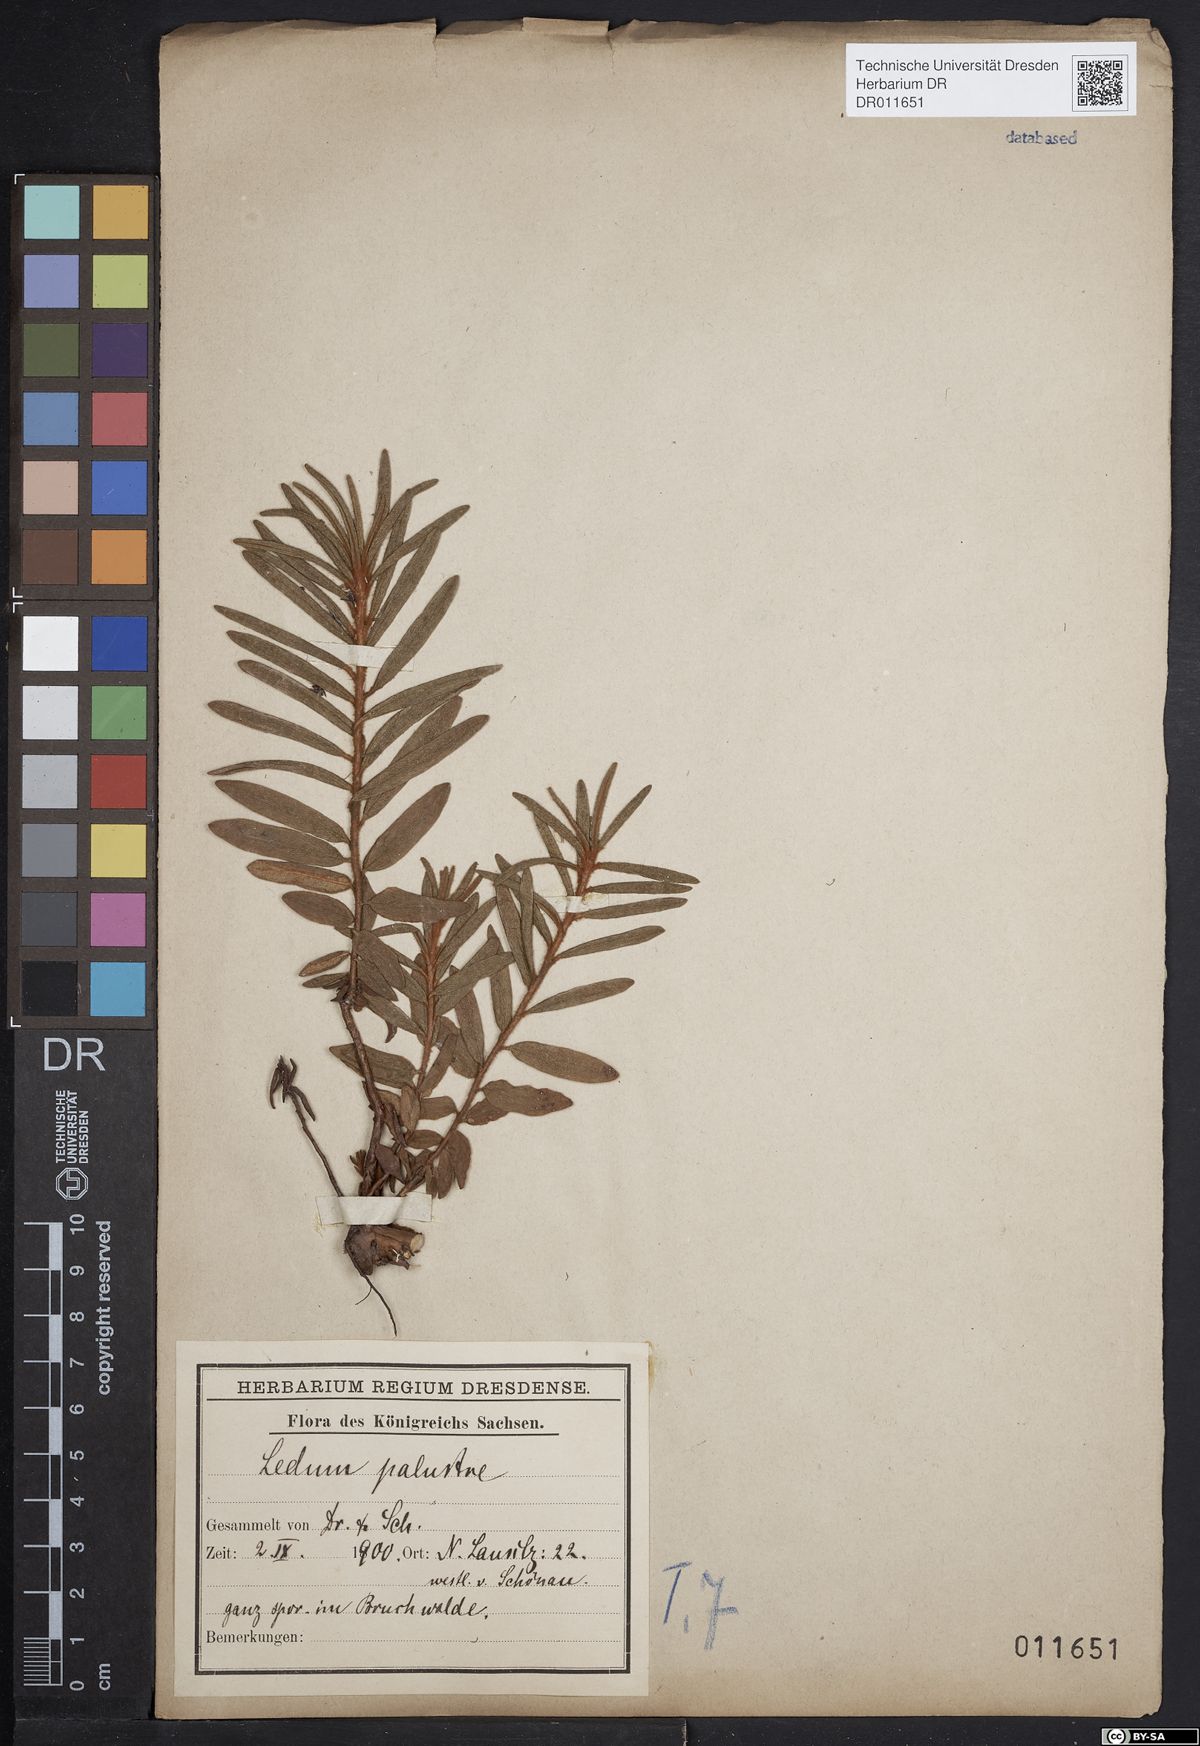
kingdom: Plantae
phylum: Tracheophyta
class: Magnoliopsida
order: Ericales
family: Ericaceae
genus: Rhododendron
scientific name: Rhododendron tomentosum
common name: Marsh labrador tea
